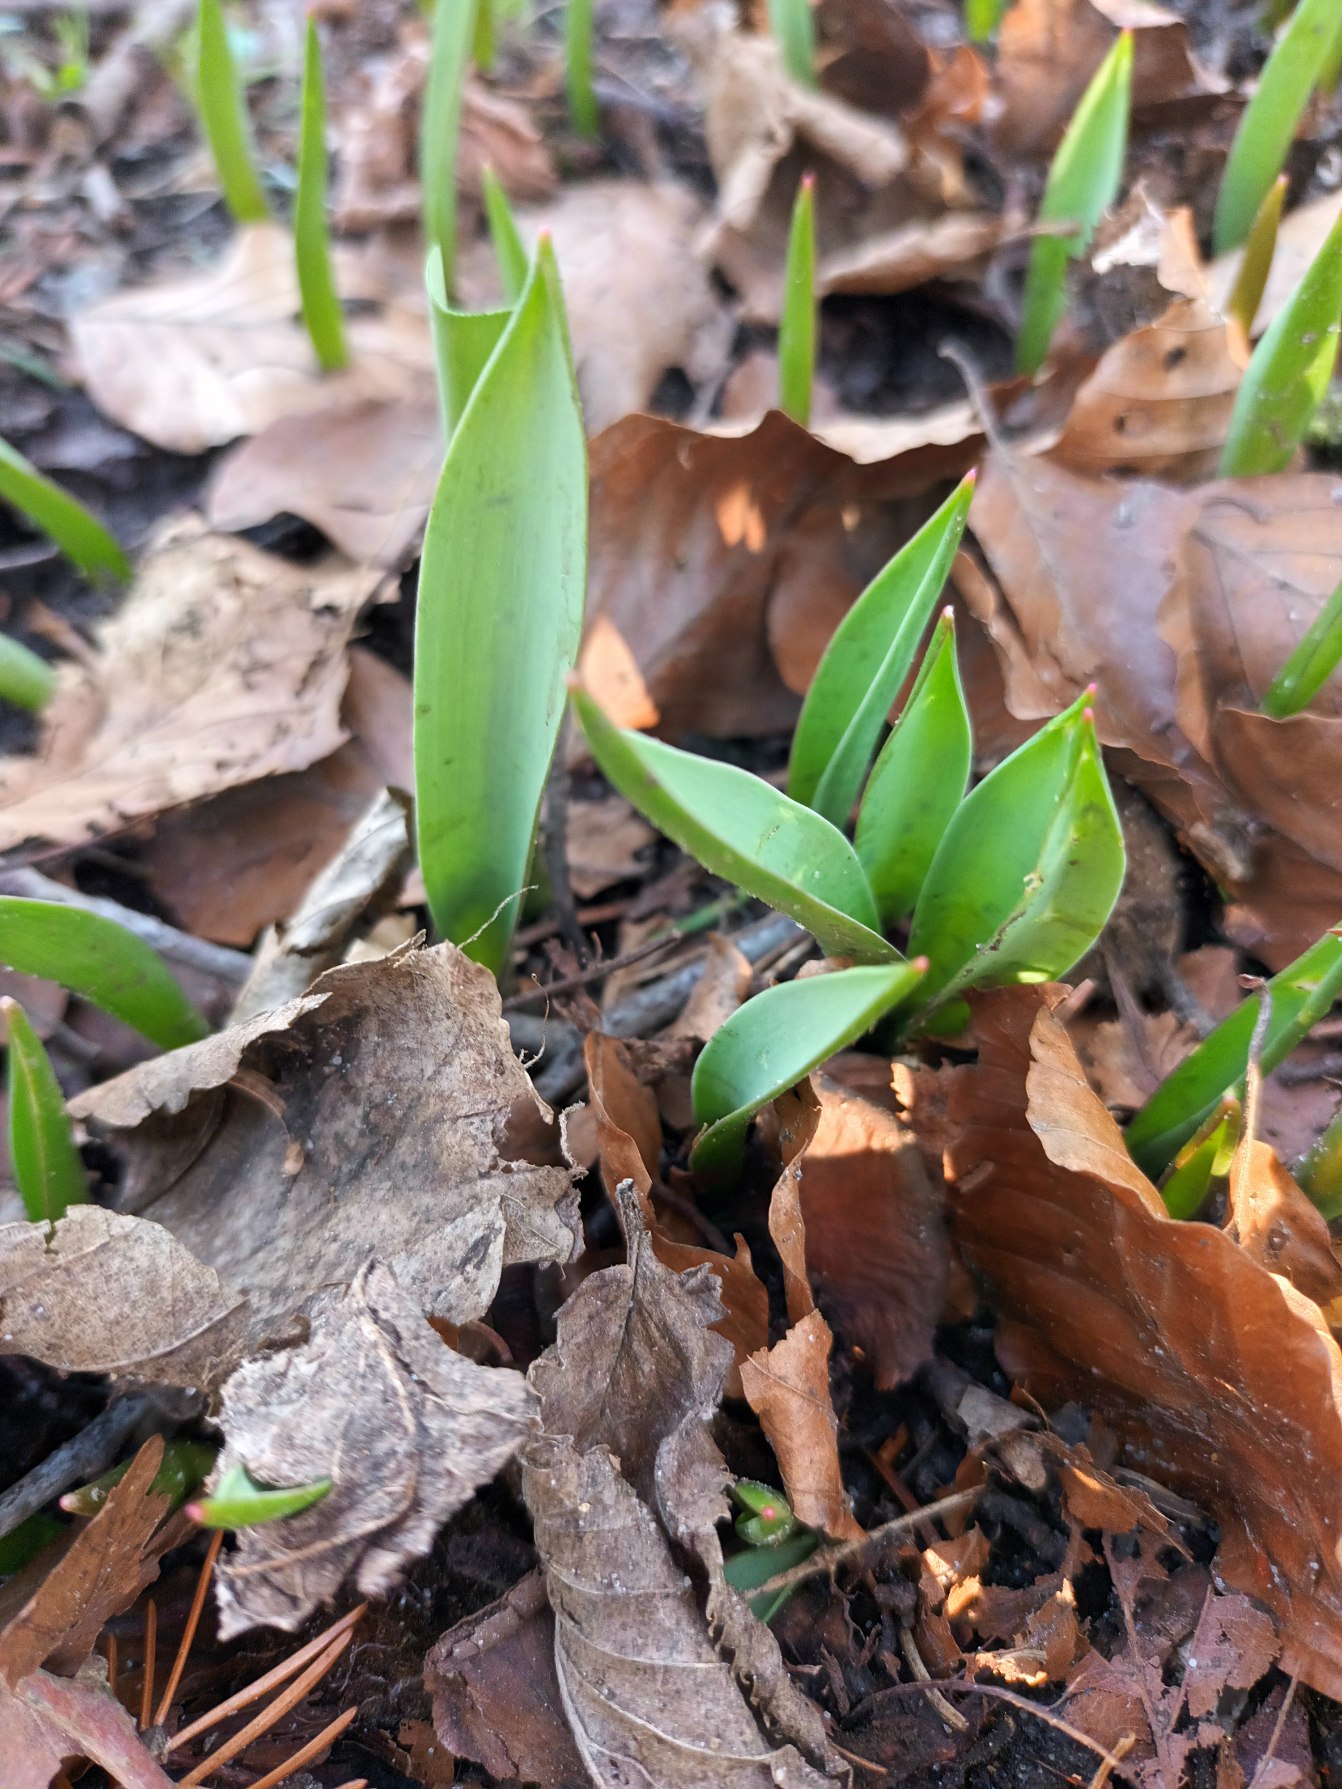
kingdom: Plantae
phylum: Tracheophyta
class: Liliopsida
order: Liliales
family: Liliaceae
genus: Tulipa
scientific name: Tulipa sylvestris
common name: Vild tulipan
